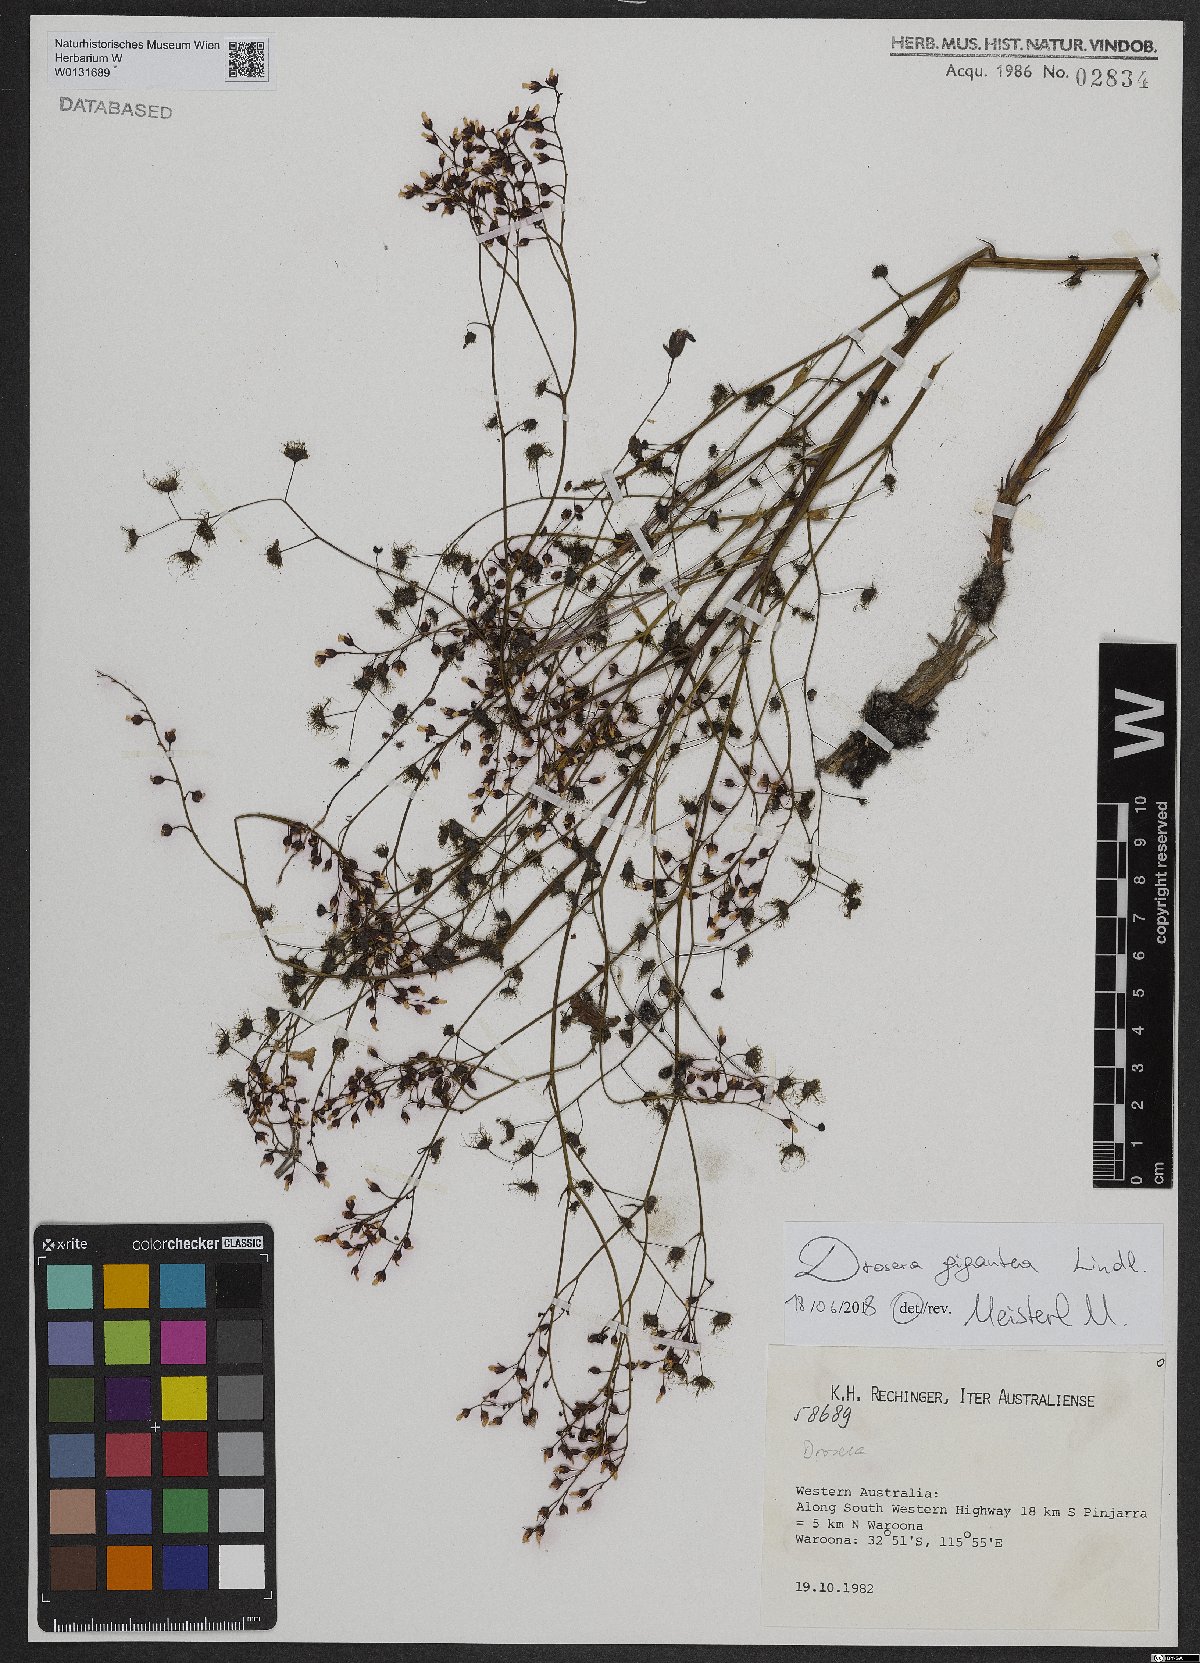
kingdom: Plantae
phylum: Tracheophyta
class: Magnoliopsida
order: Caryophyllales
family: Droseraceae
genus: Drosera
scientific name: Drosera gigantea
